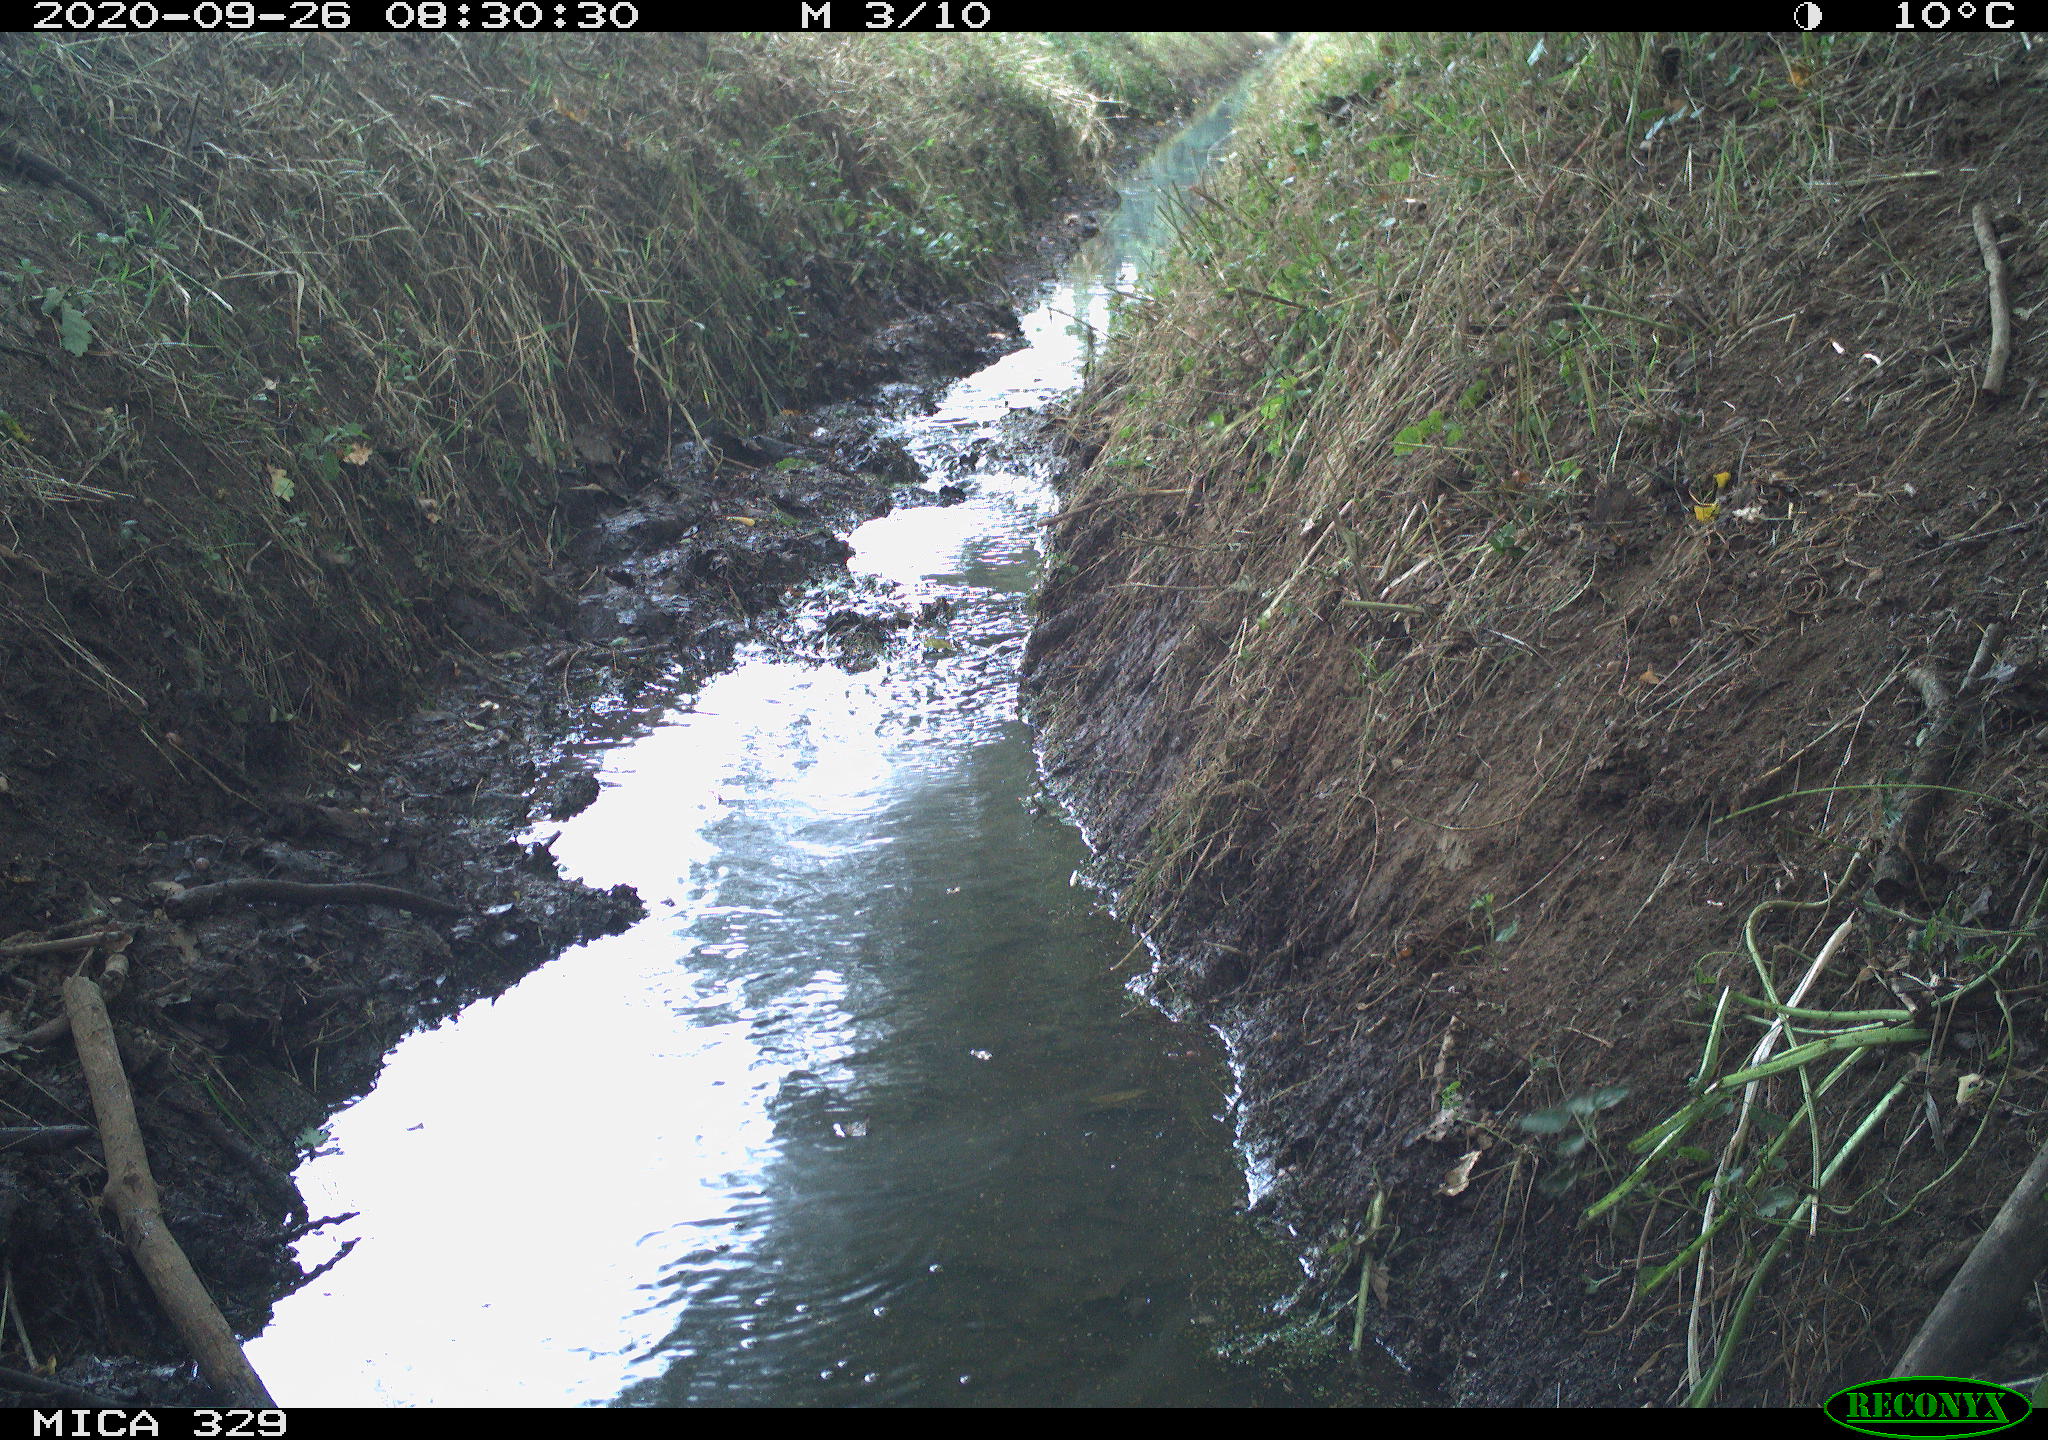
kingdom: Animalia
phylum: Chordata
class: Aves
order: Columbiformes
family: Columbidae
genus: Columba
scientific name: Columba palumbus
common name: Common wood pigeon
